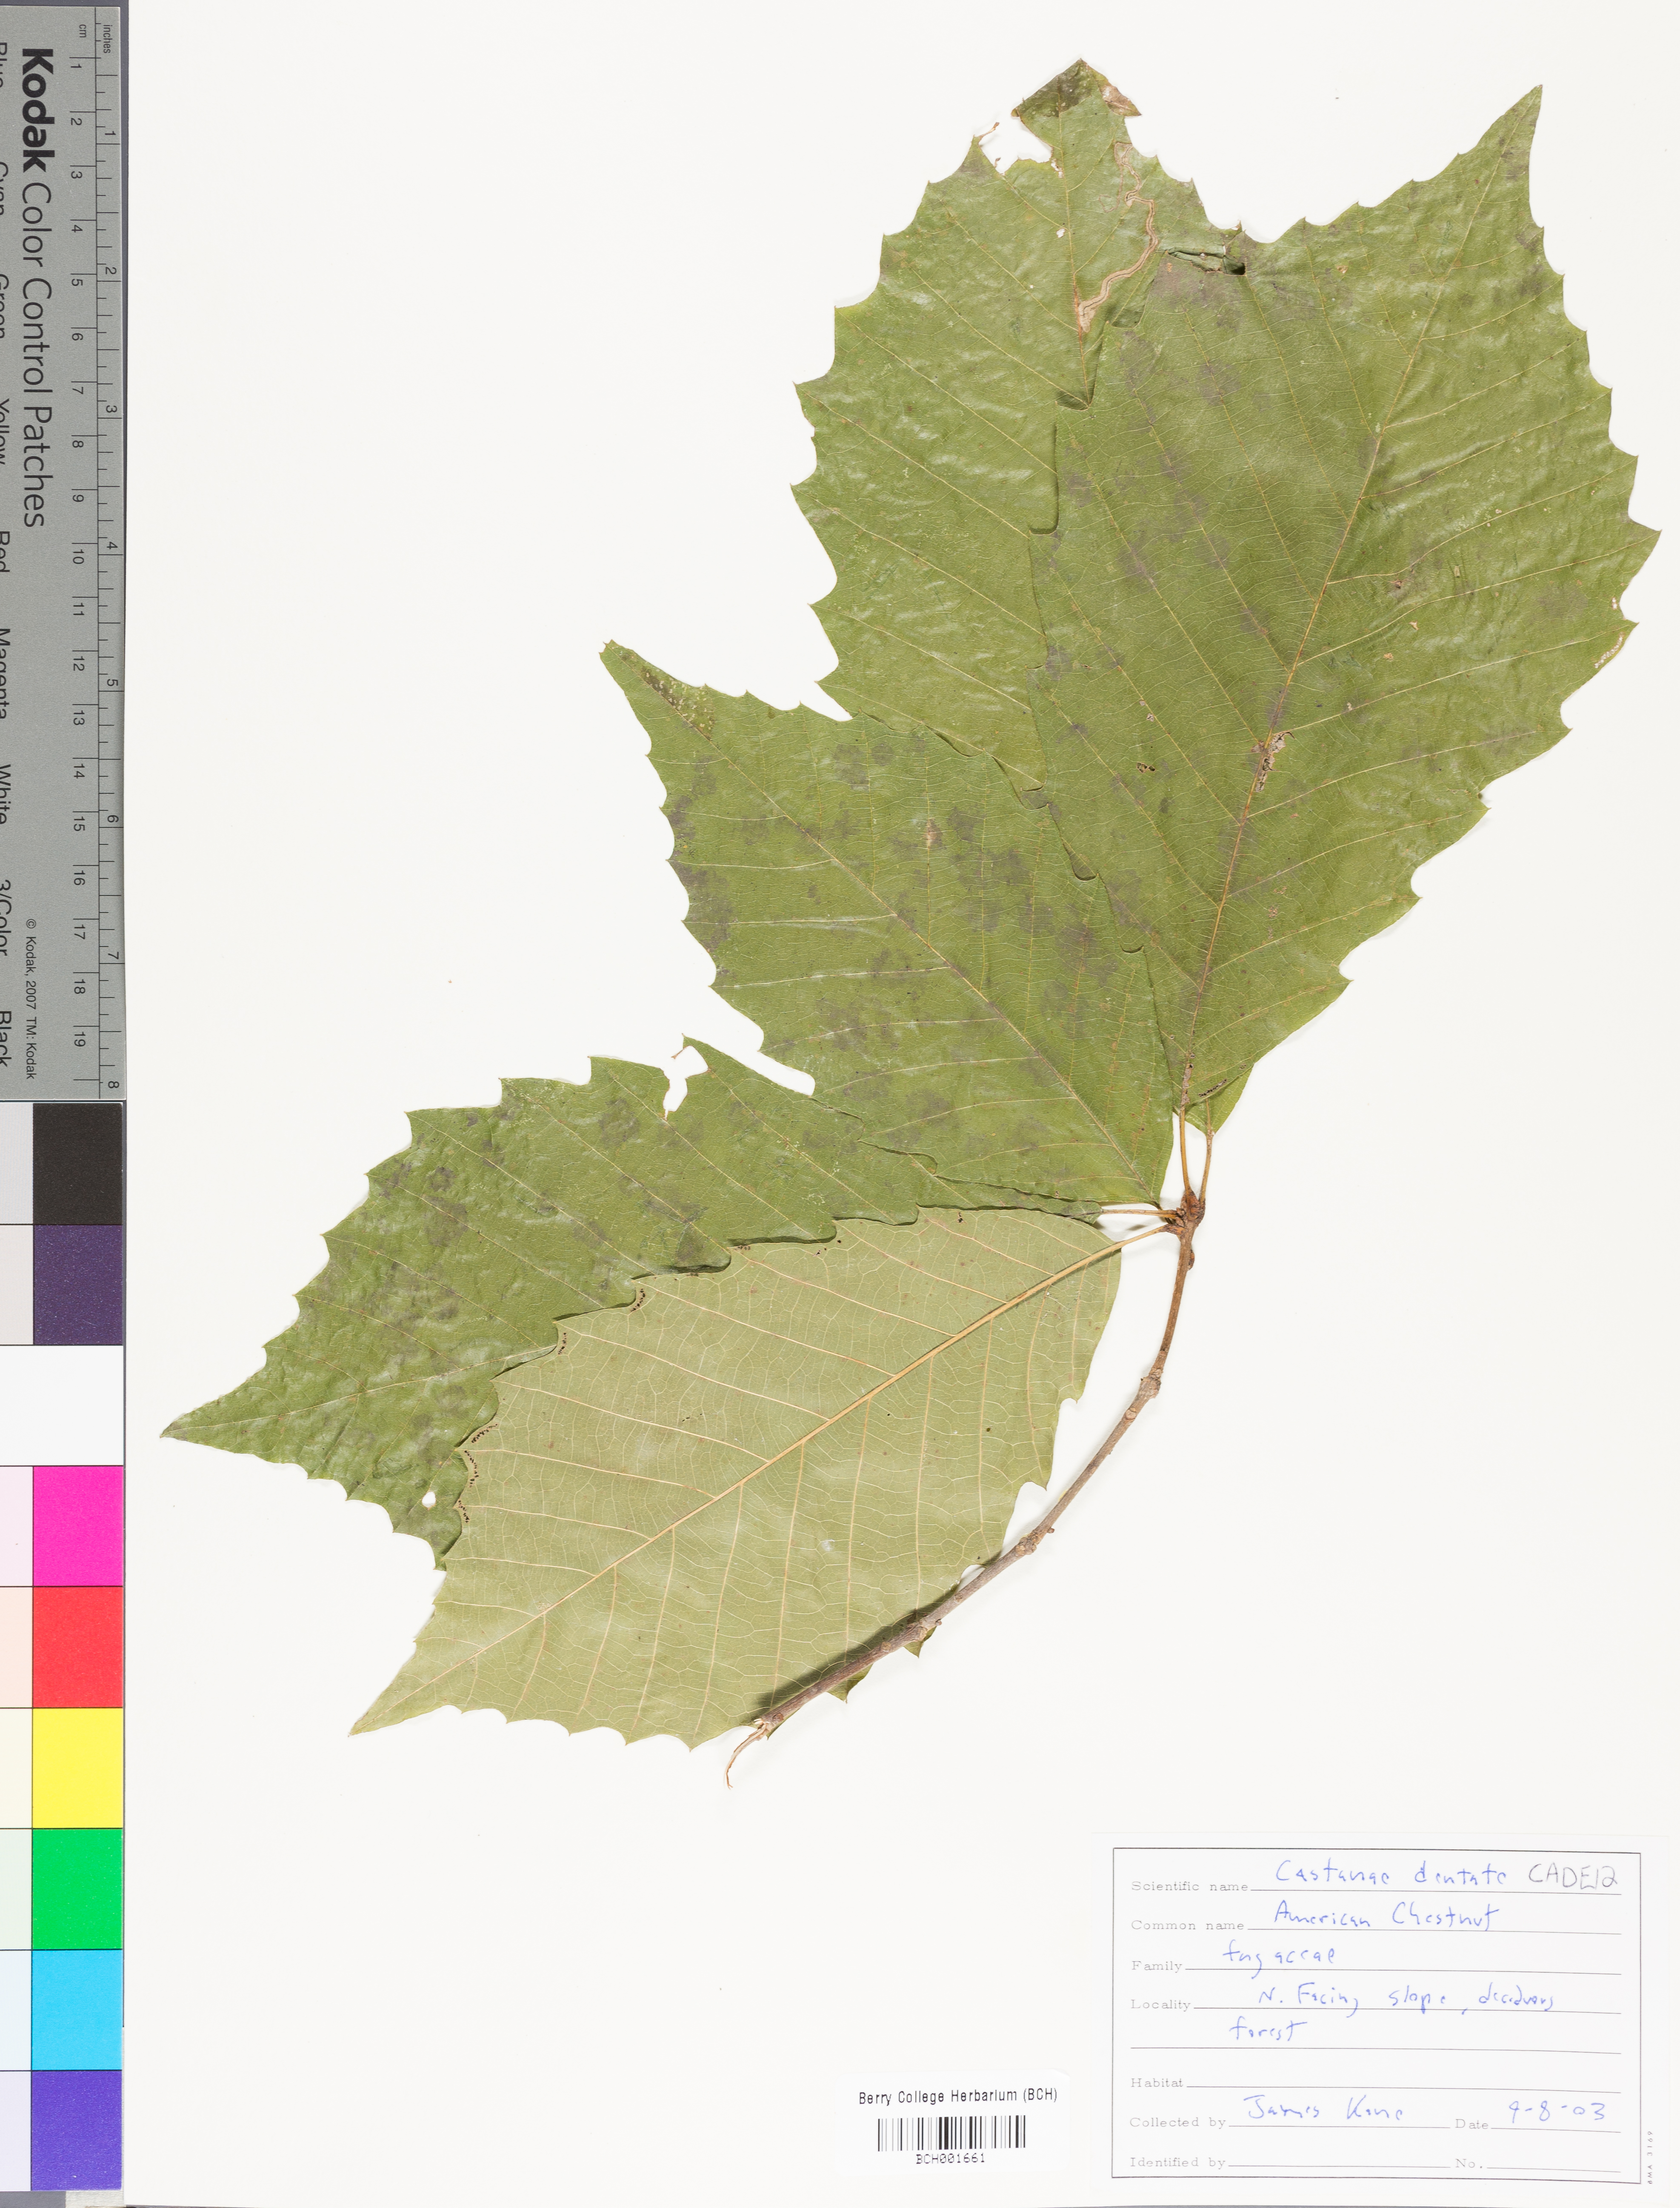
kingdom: Plantae
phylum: Tracheophyta
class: Magnoliopsida
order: Fagales
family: Fagaceae
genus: Castanea
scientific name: Castanea dentata
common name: American chestnut
